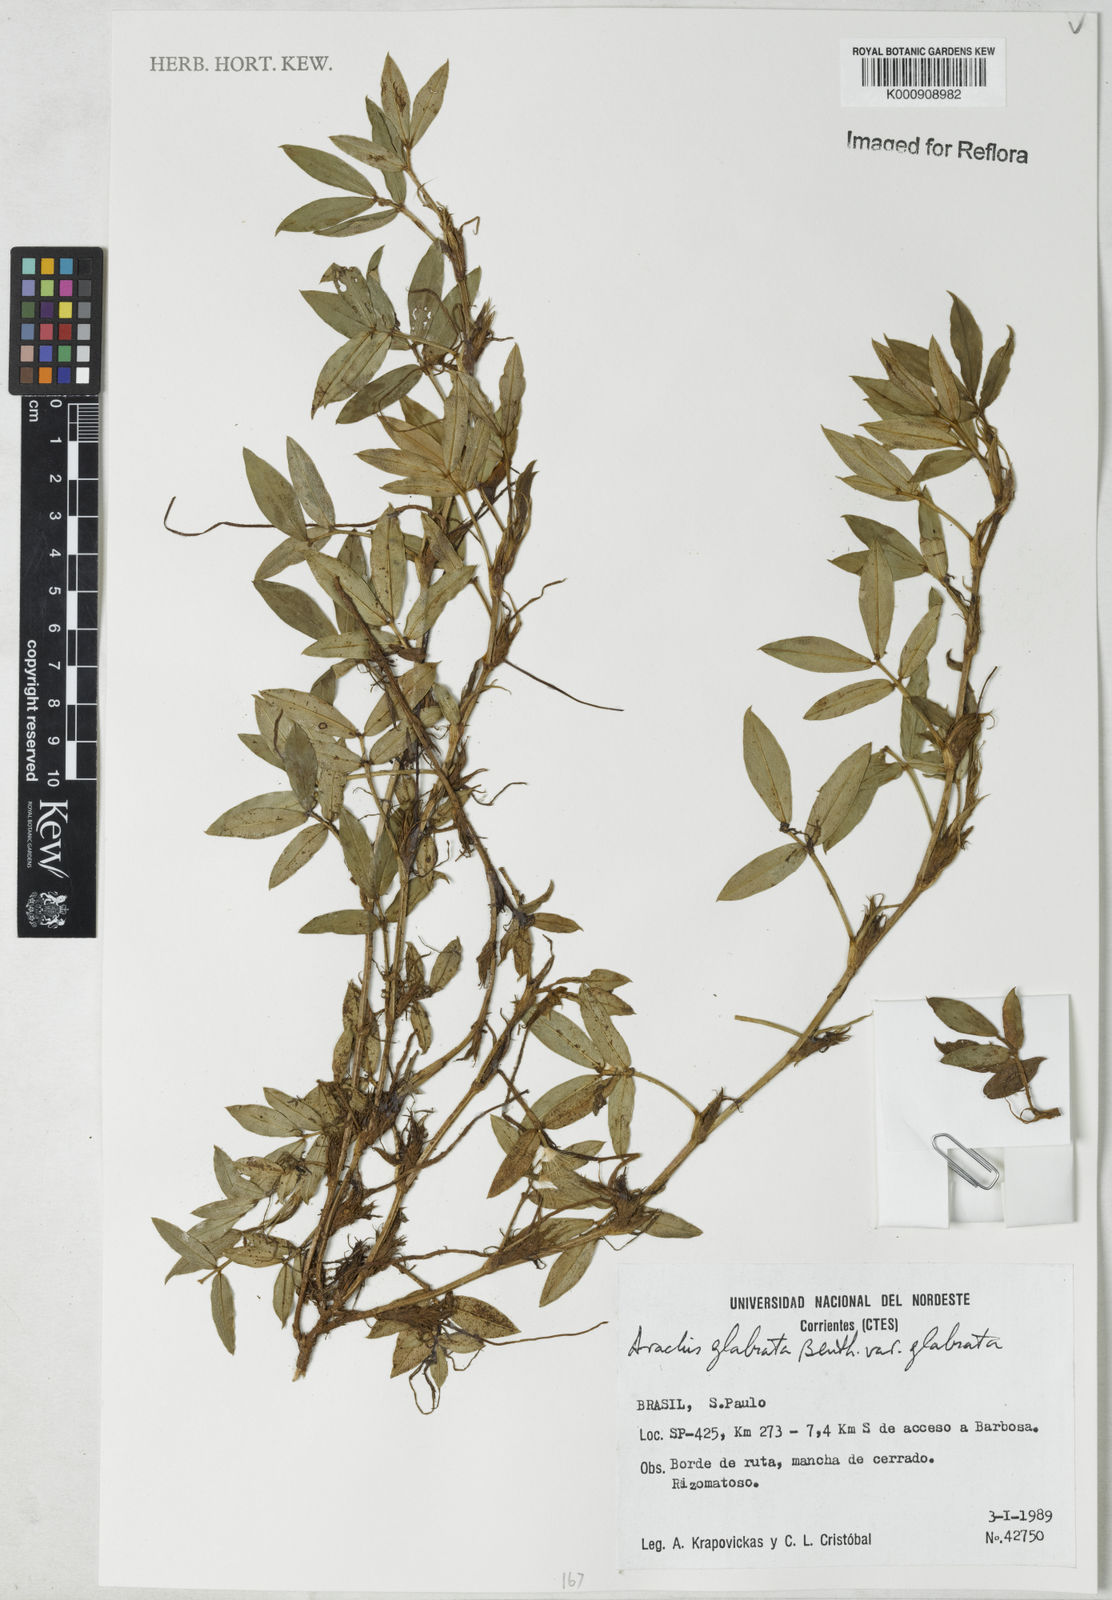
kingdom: Plantae
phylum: Tracheophyta
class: Magnoliopsida
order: Fabales
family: Fabaceae
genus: Arachis
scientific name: Arachis glabrata
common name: Rhizoma peanut
